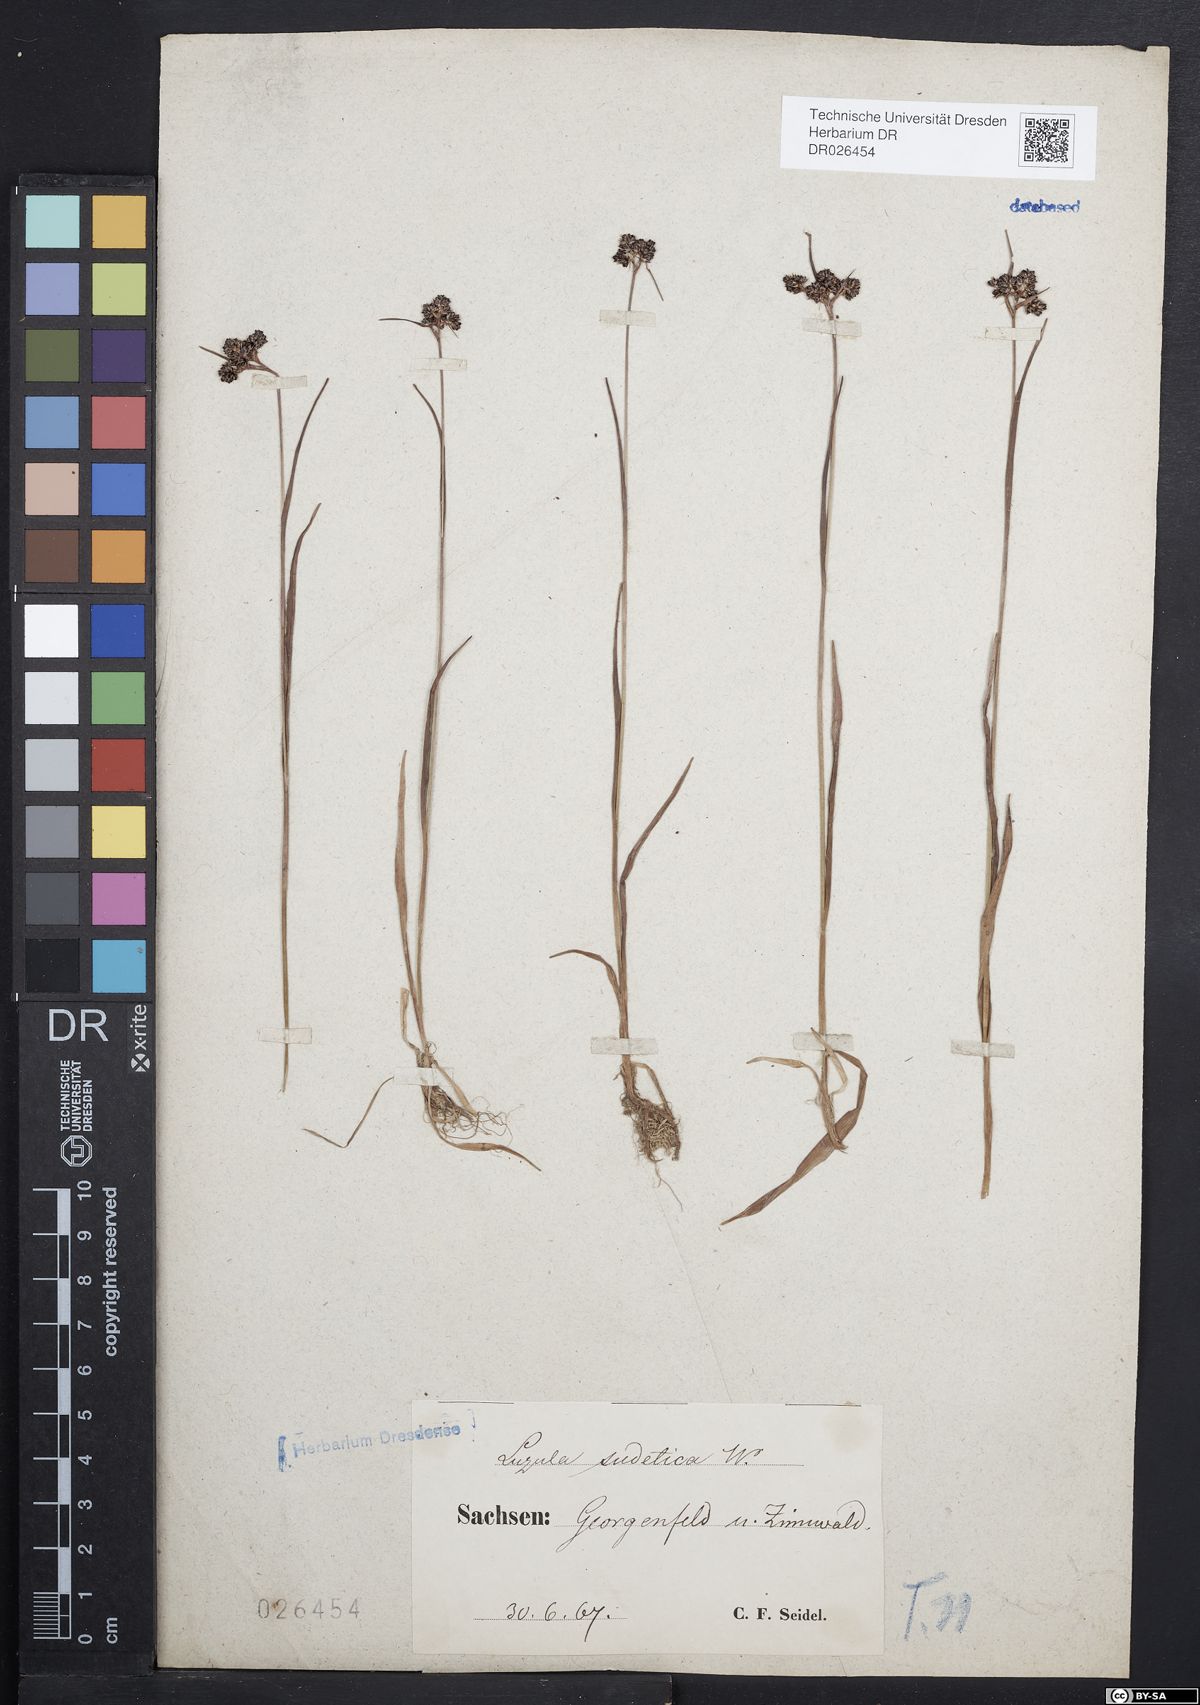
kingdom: Plantae
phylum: Tracheophyta
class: Liliopsida
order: Poales
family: Juncaceae
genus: Luzula
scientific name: Luzula sudetica
